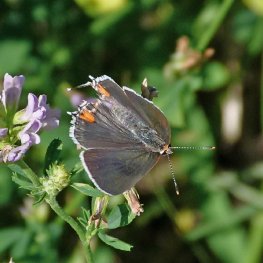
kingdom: Animalia
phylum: Arthropoda
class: Insecta
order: Lepidoptera
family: Lycaenidae
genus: Strymon
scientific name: Strymon melinus
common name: Gray Hairstreak
